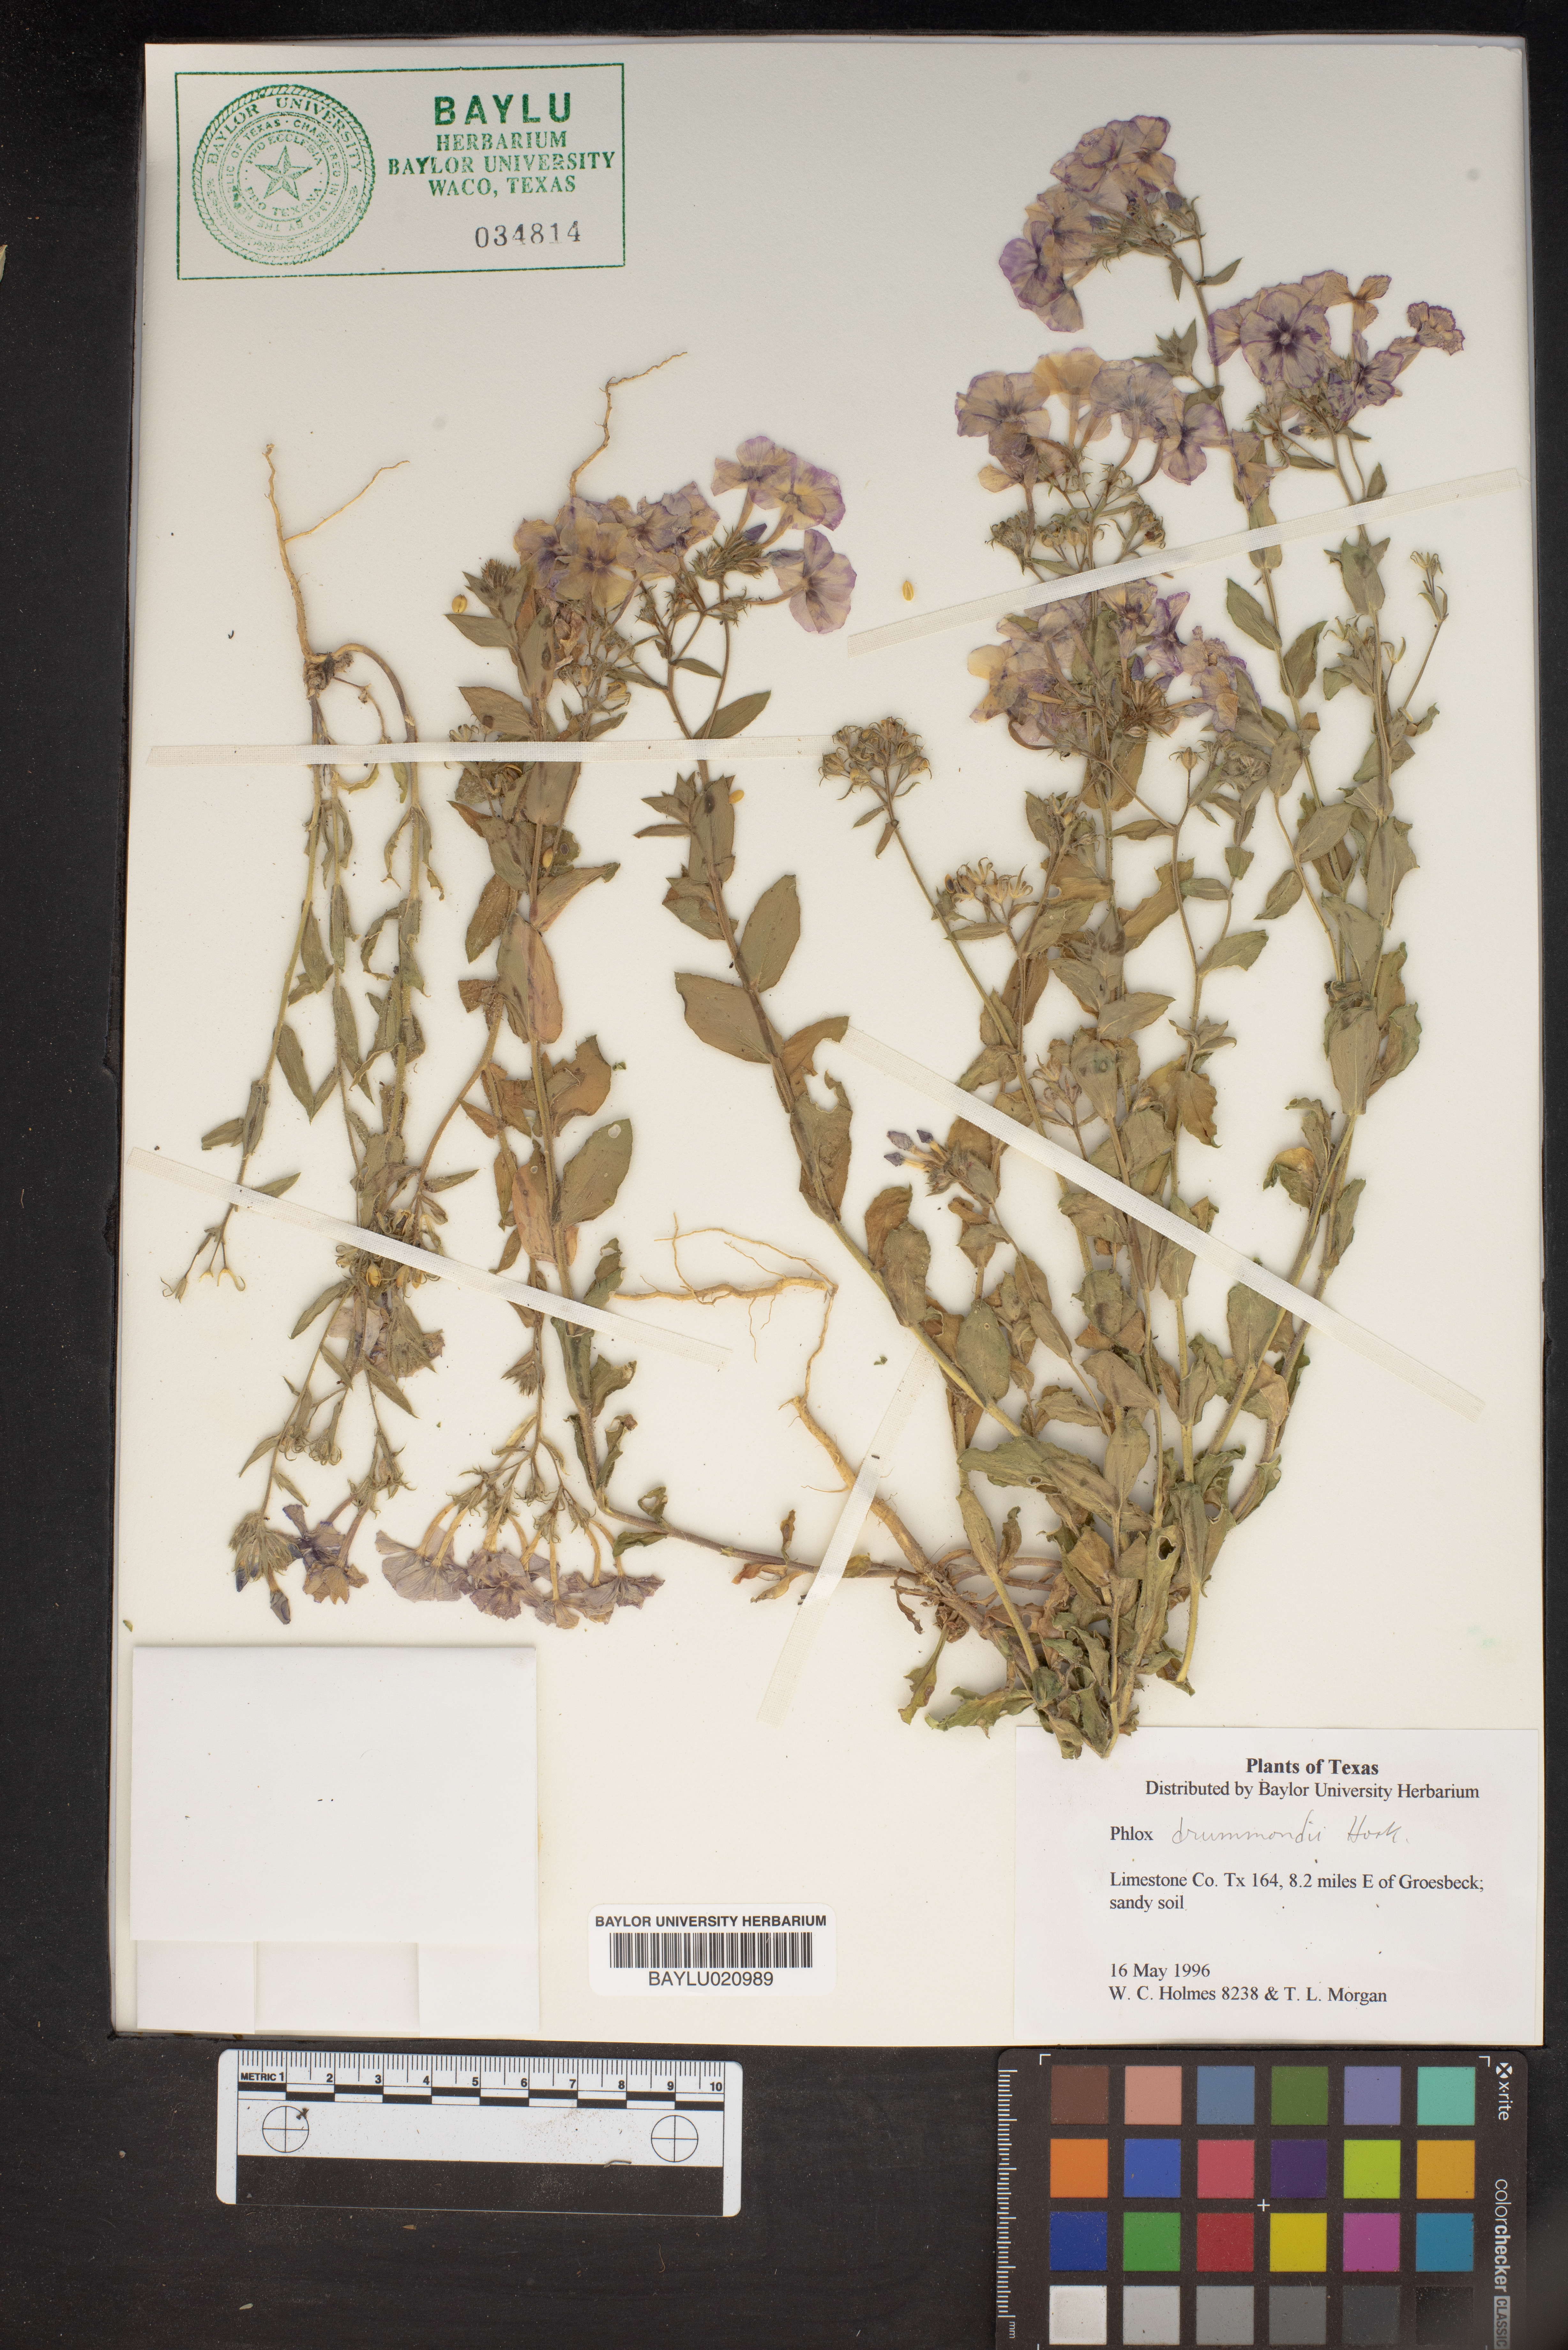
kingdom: Plantae
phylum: Tracheophyta
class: Magnoliopsida
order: Ericales
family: Polemoniaceae
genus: Phlox
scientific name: Phlox drummondii
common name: Drummond's phlox
